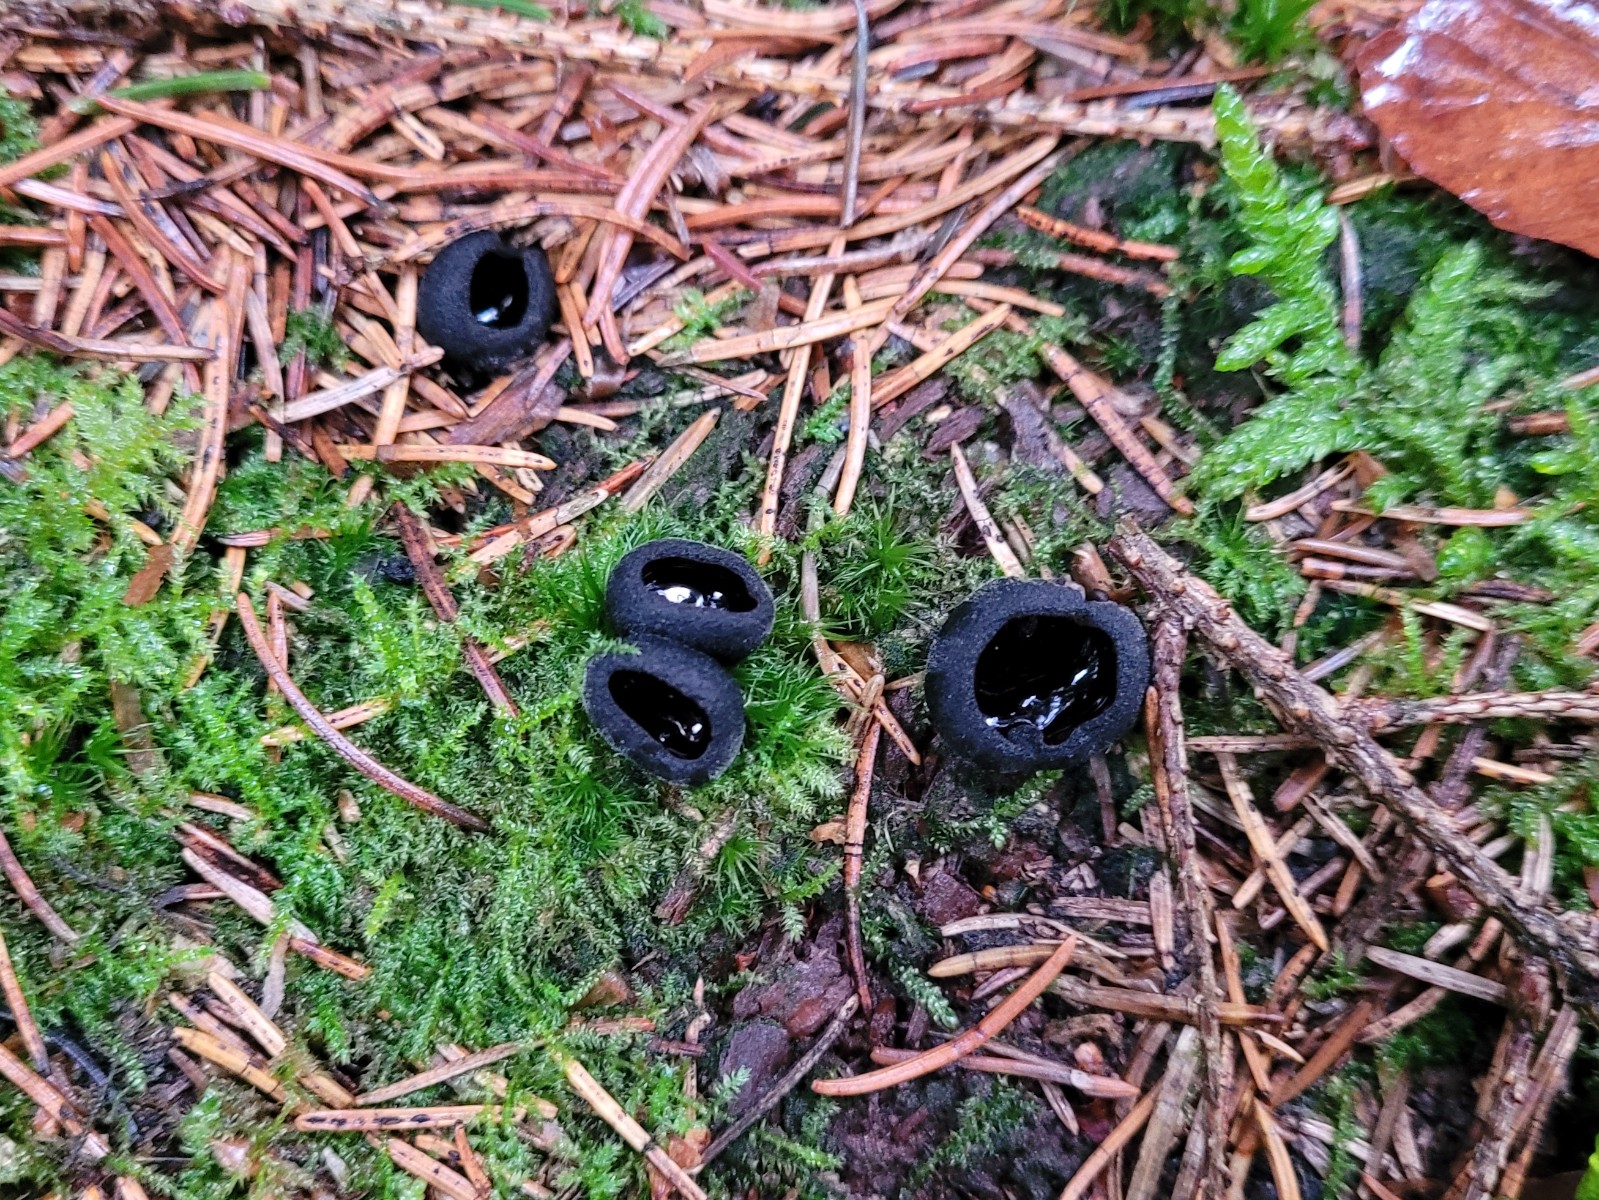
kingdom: Fungi
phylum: Ascomycota
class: Pezizomycetes
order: Pezizales
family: Sarcosomataceae
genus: Pseudoplectania
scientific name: Pseudoplectania nigrella
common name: almindelig sortbæger
